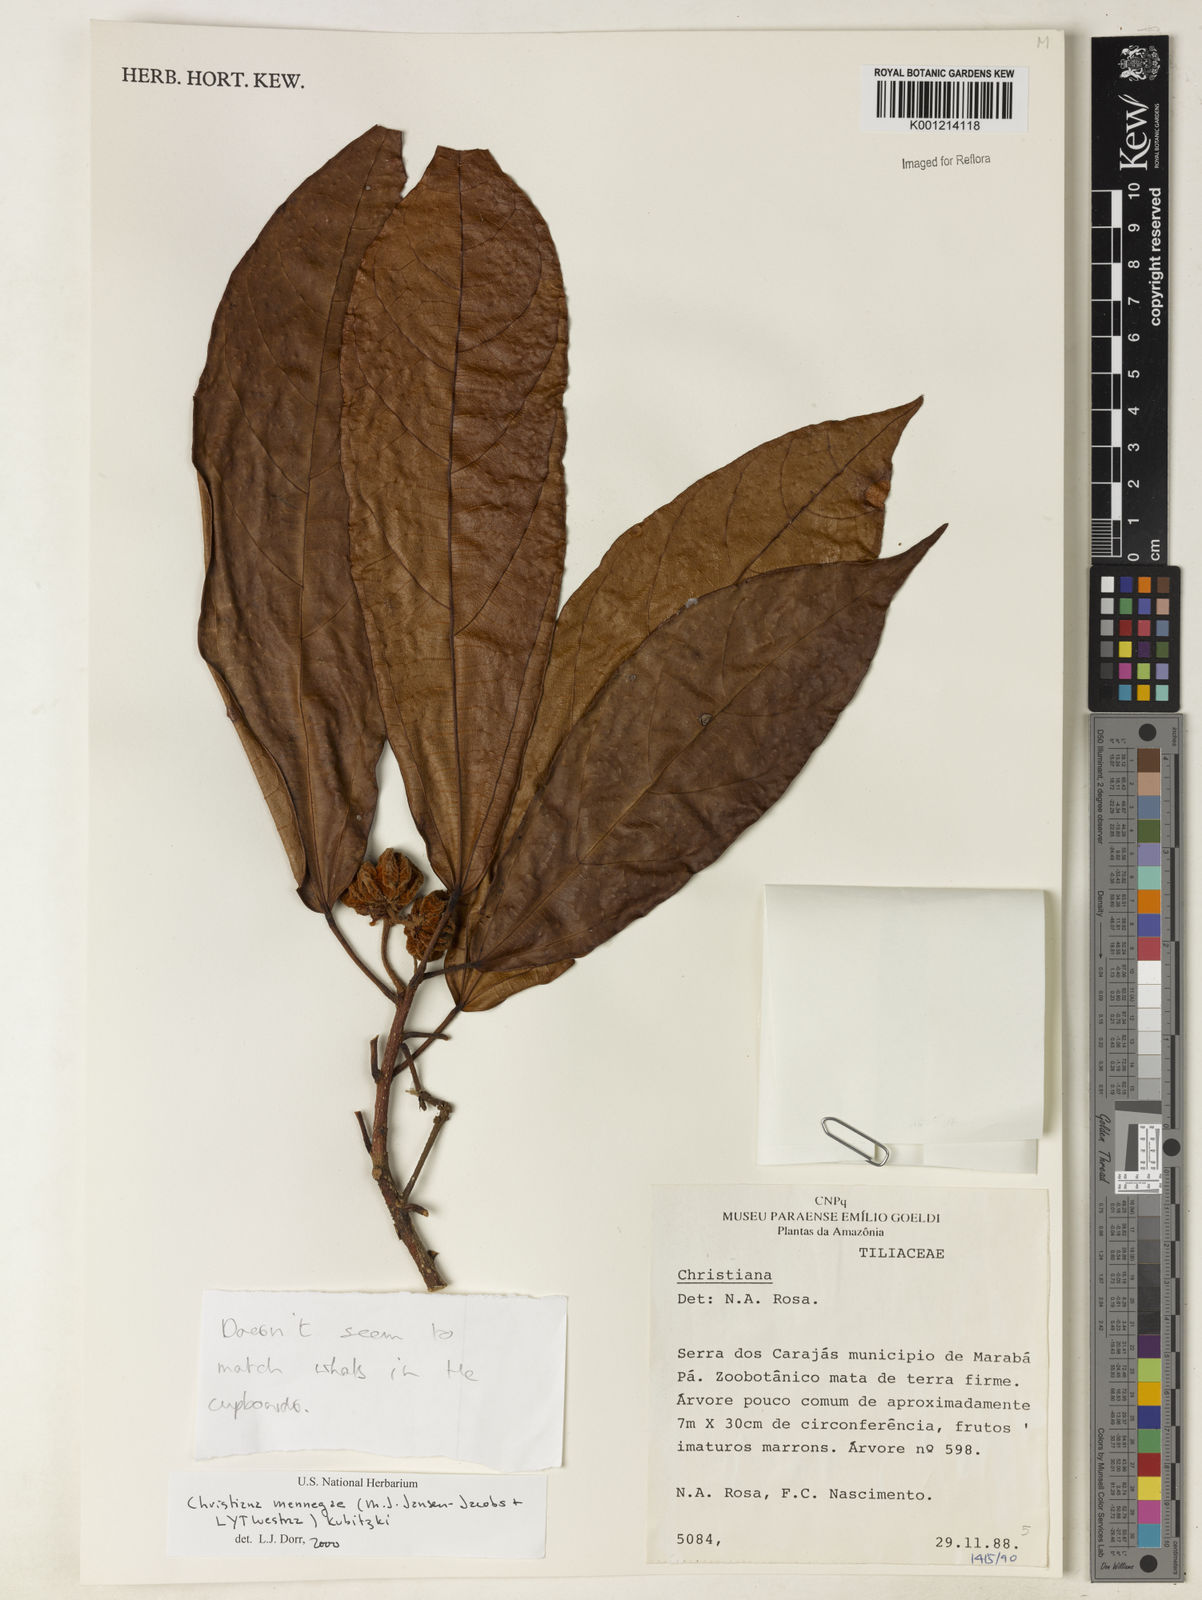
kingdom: Plantae
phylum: Tracheophyta
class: Magnoliopsida
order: Malvales
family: Malvaceae
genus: Christiana
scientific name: Christiana mennegae
